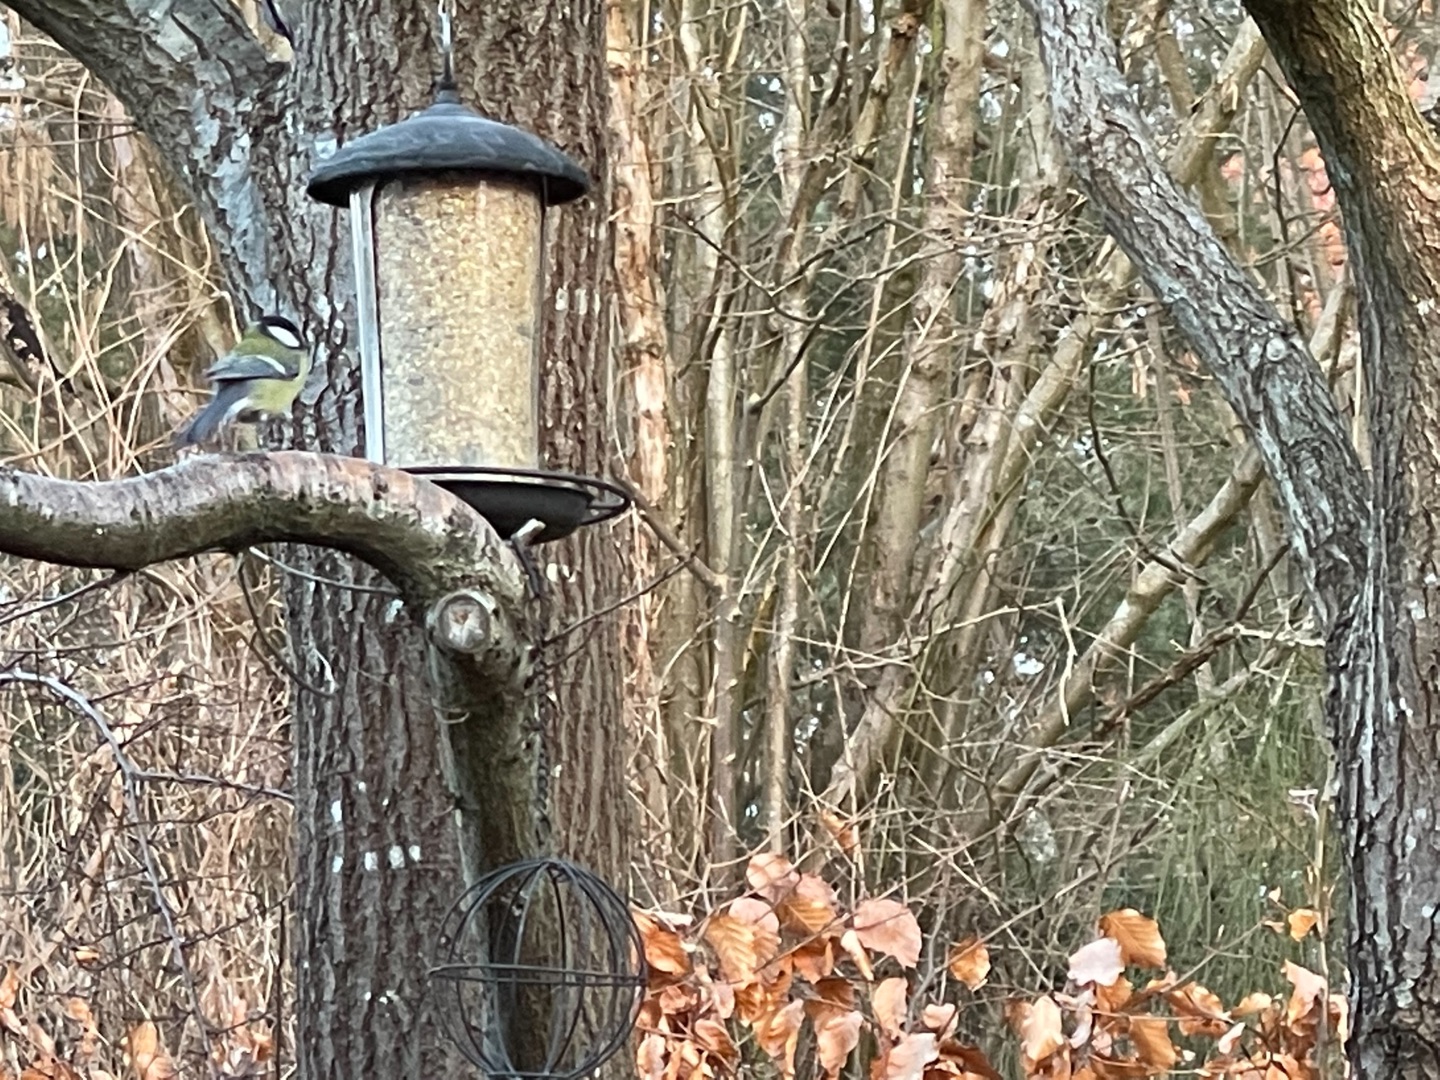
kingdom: Animalia
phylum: Chordata
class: Aves
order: Passeriformes
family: Paridae
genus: Parus
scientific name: Parus major
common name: Musvit
